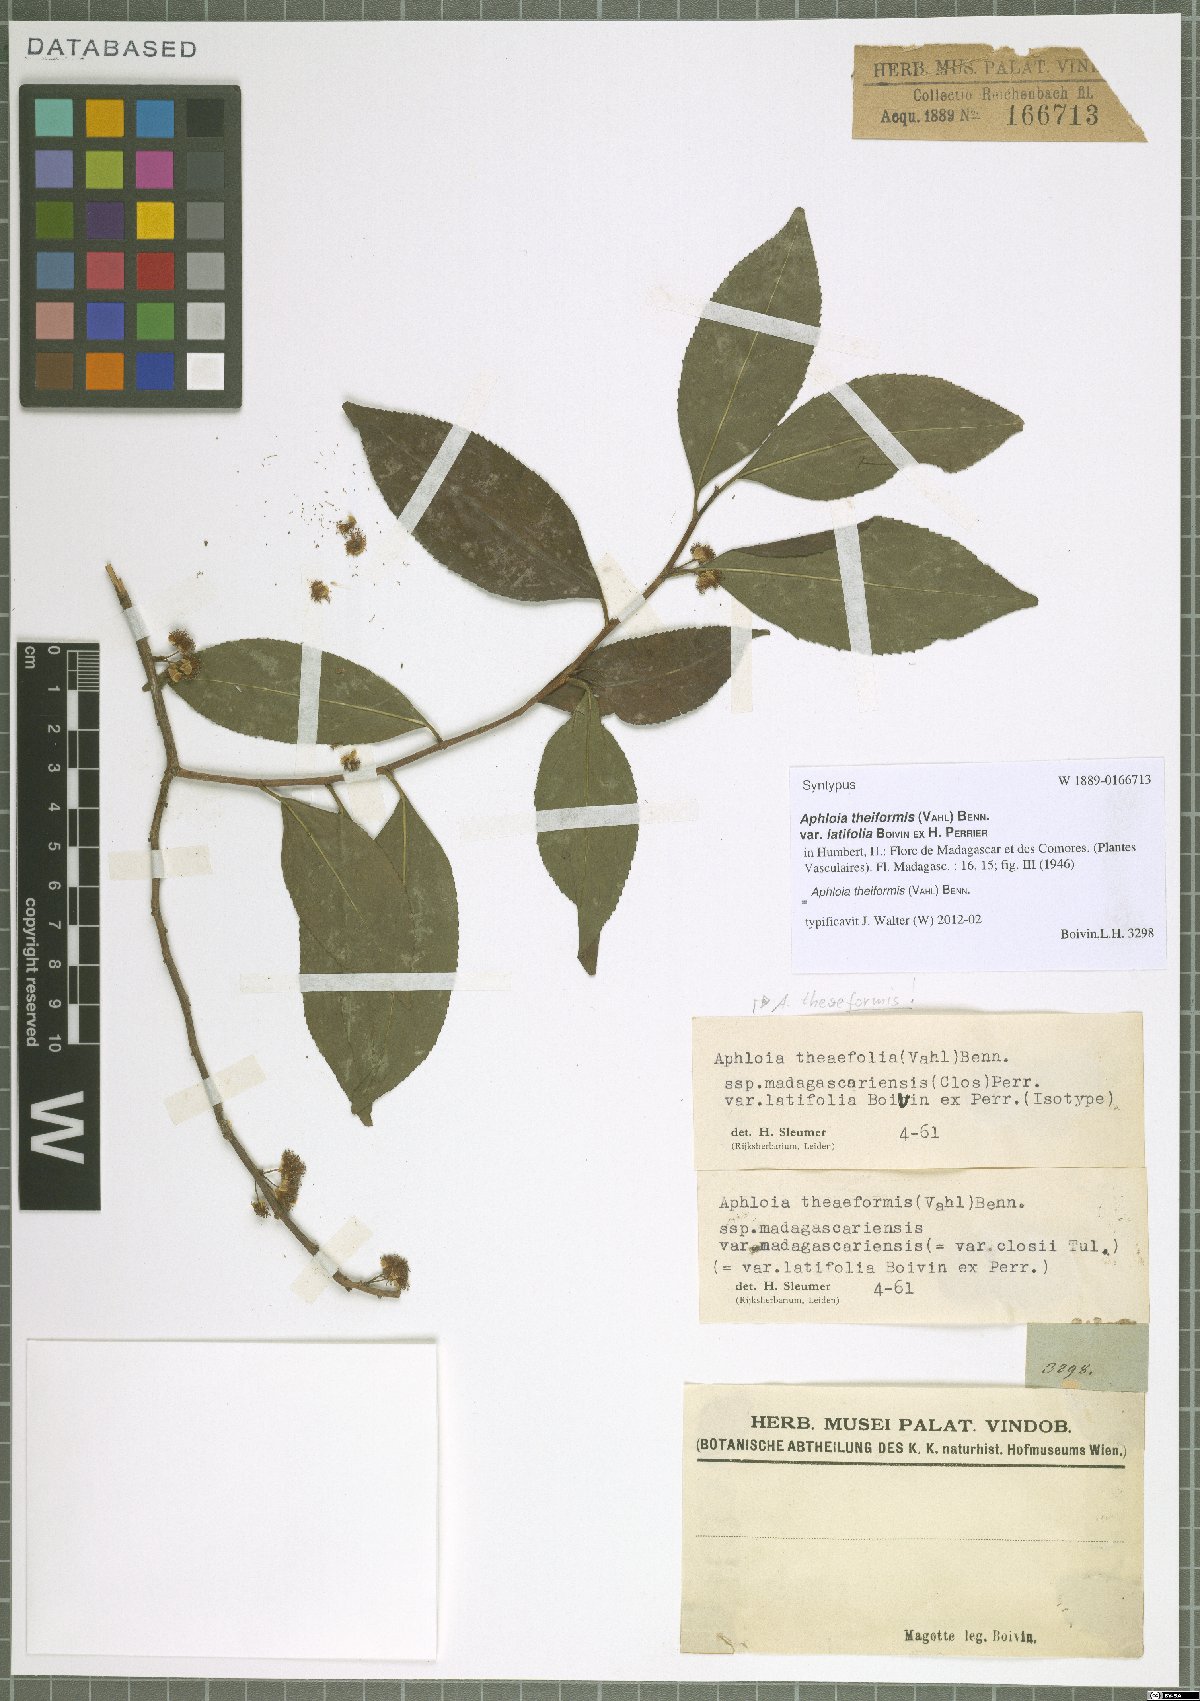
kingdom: Plantae
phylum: Tracheophyta
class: Magnoliopsida
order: Crossosomatales
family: Aphloiaceae
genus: Aphloia
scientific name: Aphloia theiformis
